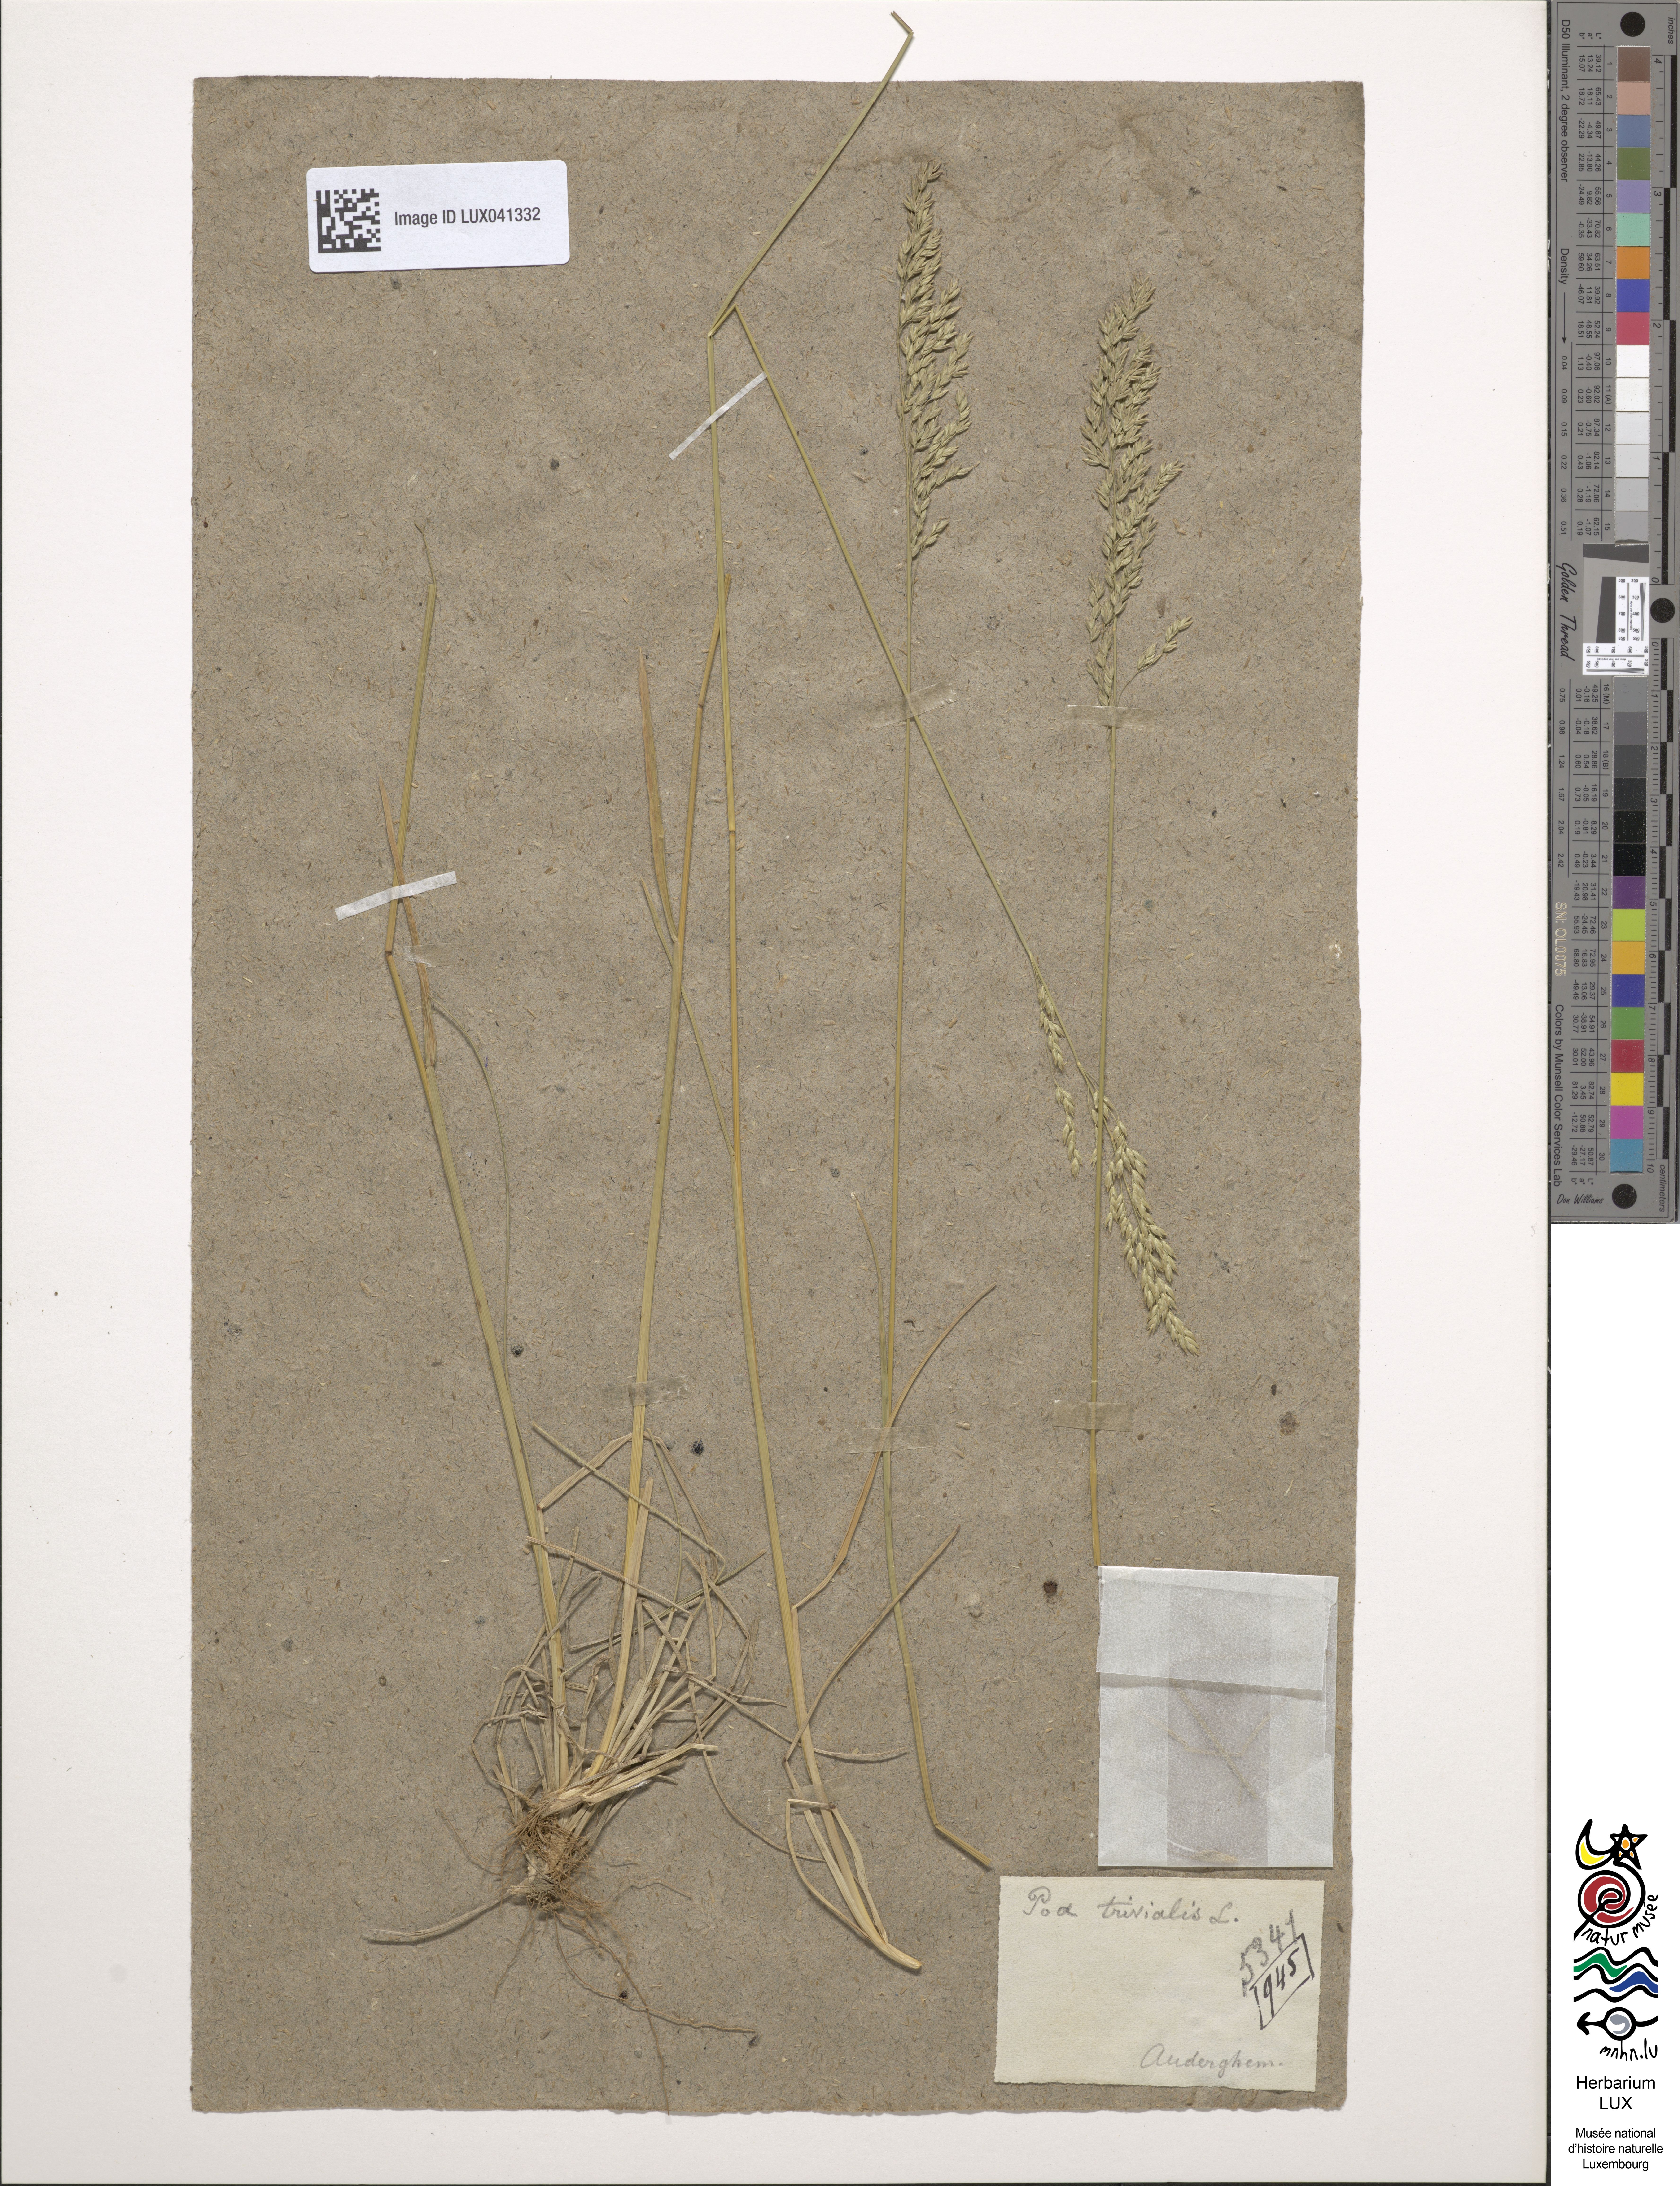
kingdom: Plantae
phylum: Tracheophyta
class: Liliopsida
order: Poales
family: Poaceae
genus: Poa
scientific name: Poa trivialis
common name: Rough bluegrass
